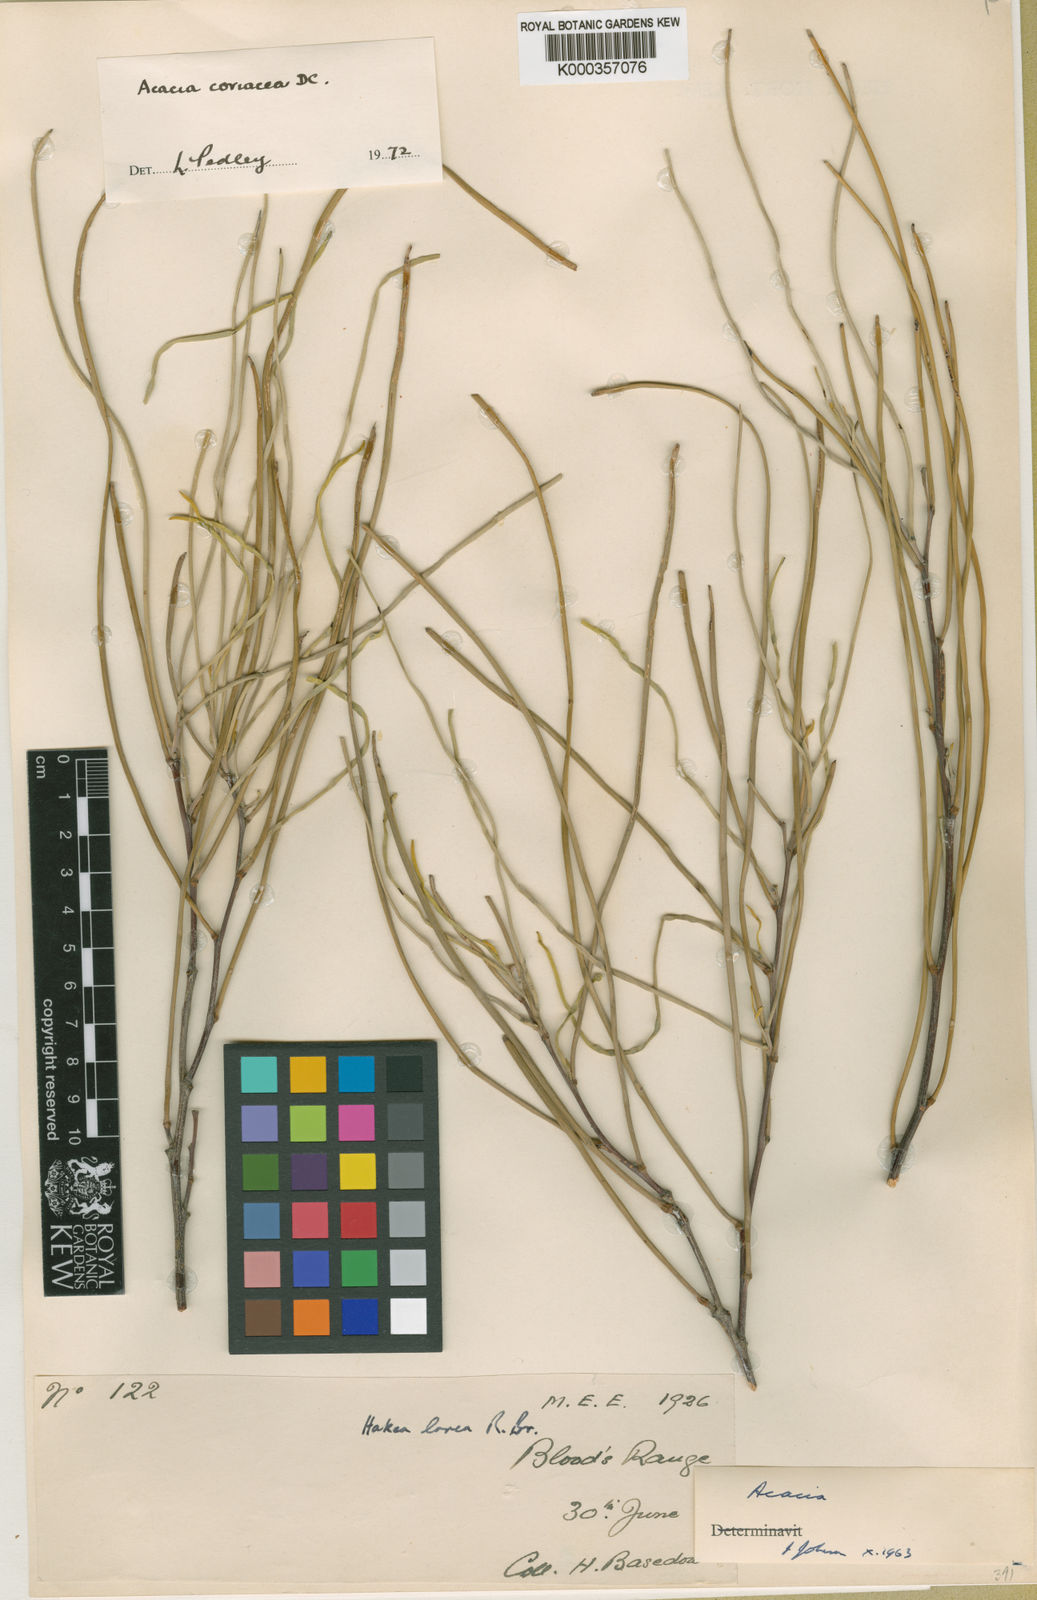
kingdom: Plantae
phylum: Tracheophyta
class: Magnoliopsida
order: Fabales
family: Fabaceae
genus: Acacia
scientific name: Acacia coriacea
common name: Desert-oak
